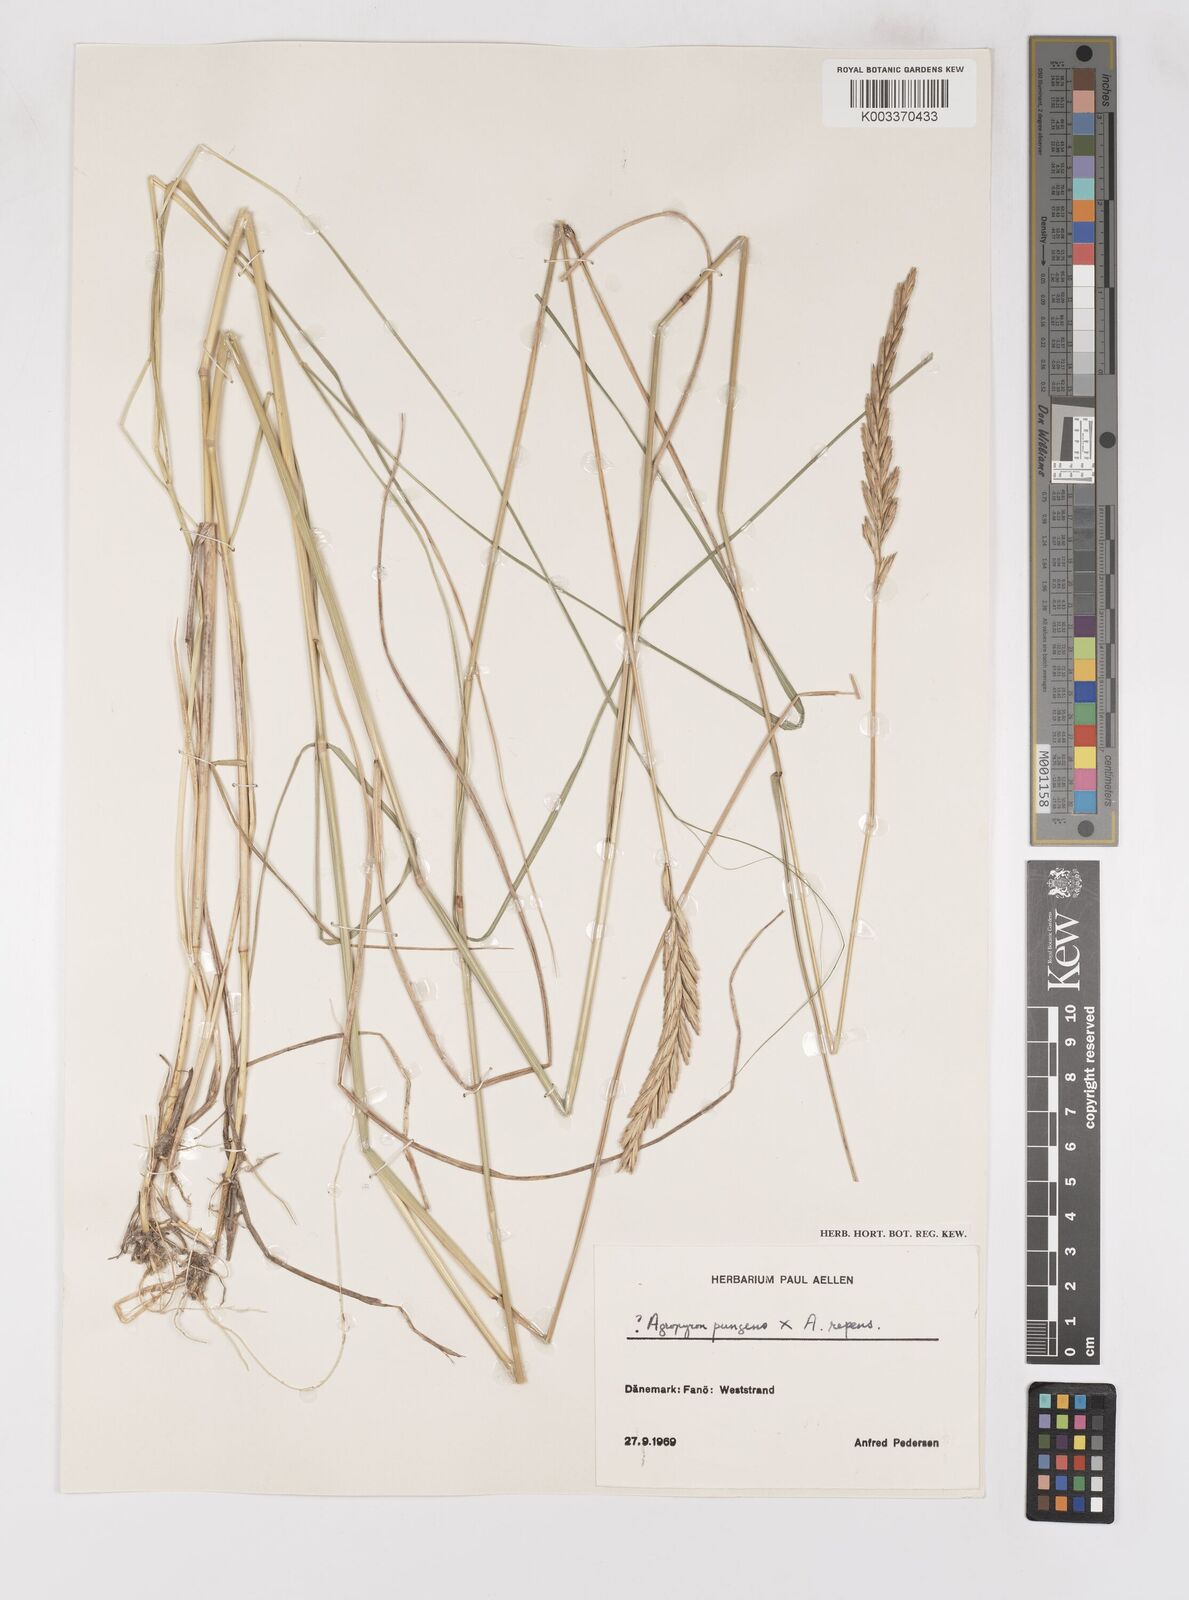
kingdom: Plantae
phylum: Tracheophyta
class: Liliopsida
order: Poales
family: Poaceae
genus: Elymus
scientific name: Elymus oliveri
